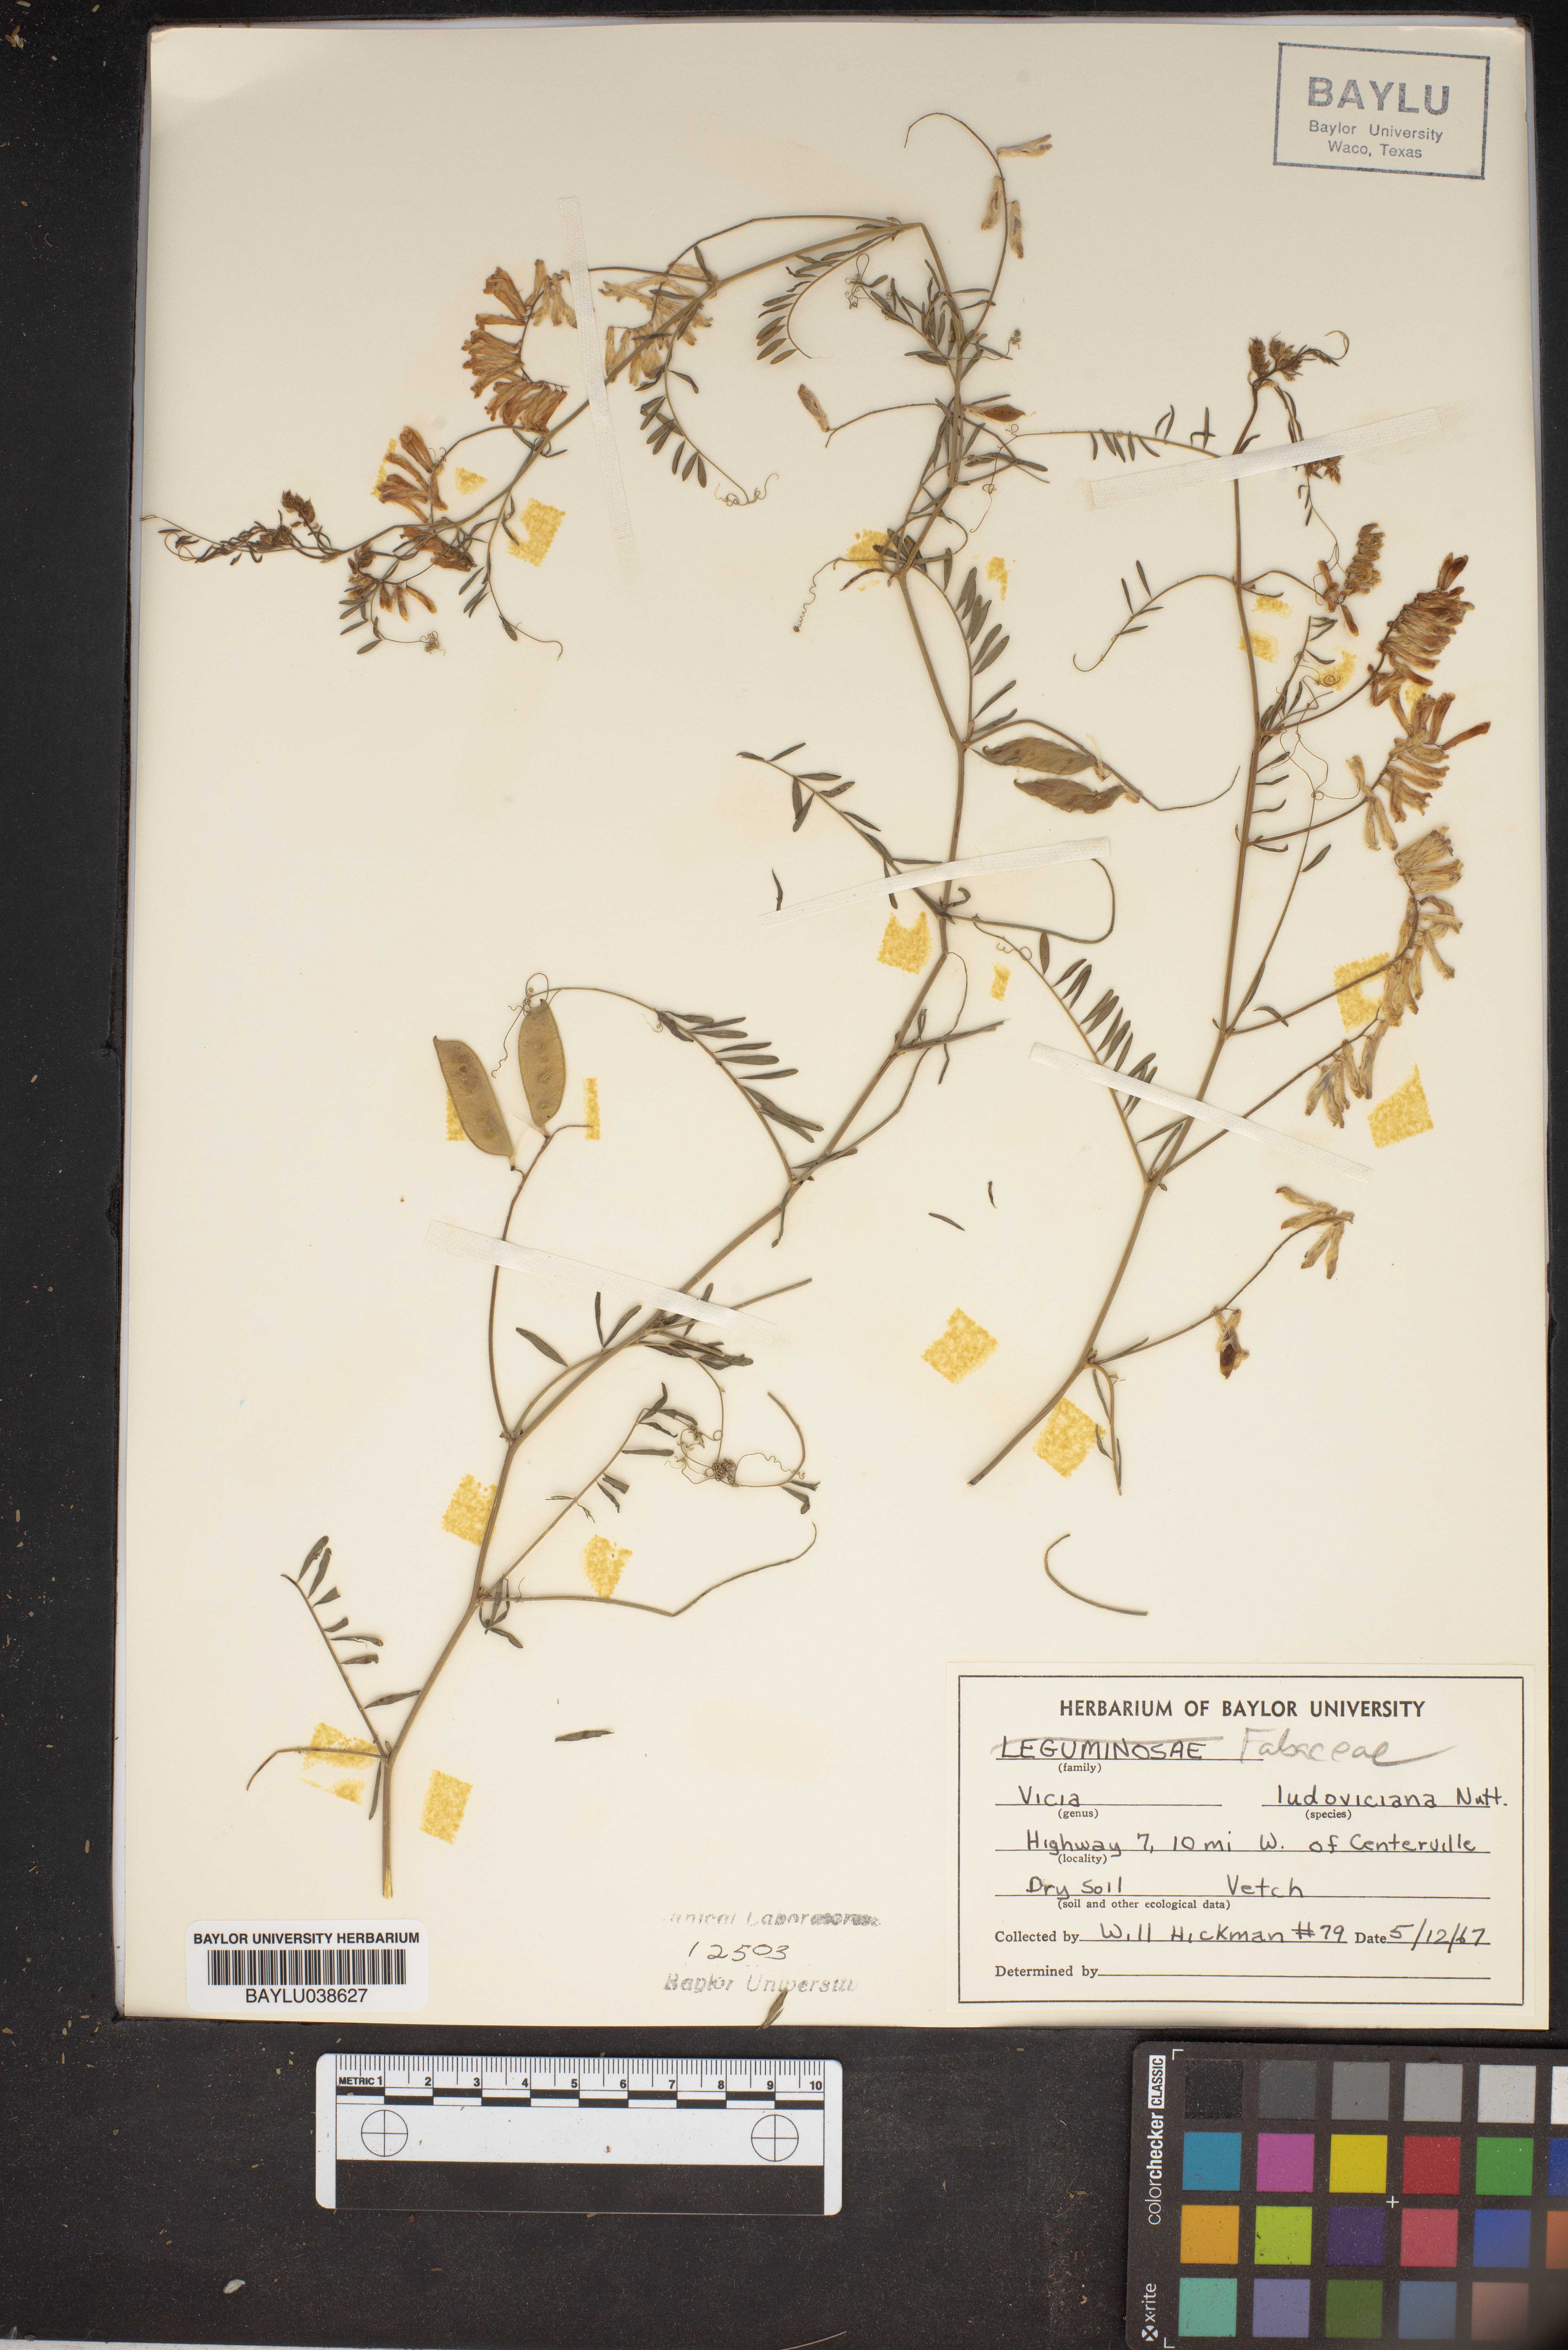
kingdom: Plantae
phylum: Tracheophyta
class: Magnoliopsida
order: Fabales
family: Fabaceae
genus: Vicia
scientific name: Vicia ludoviciana
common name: Louisiana vetch
